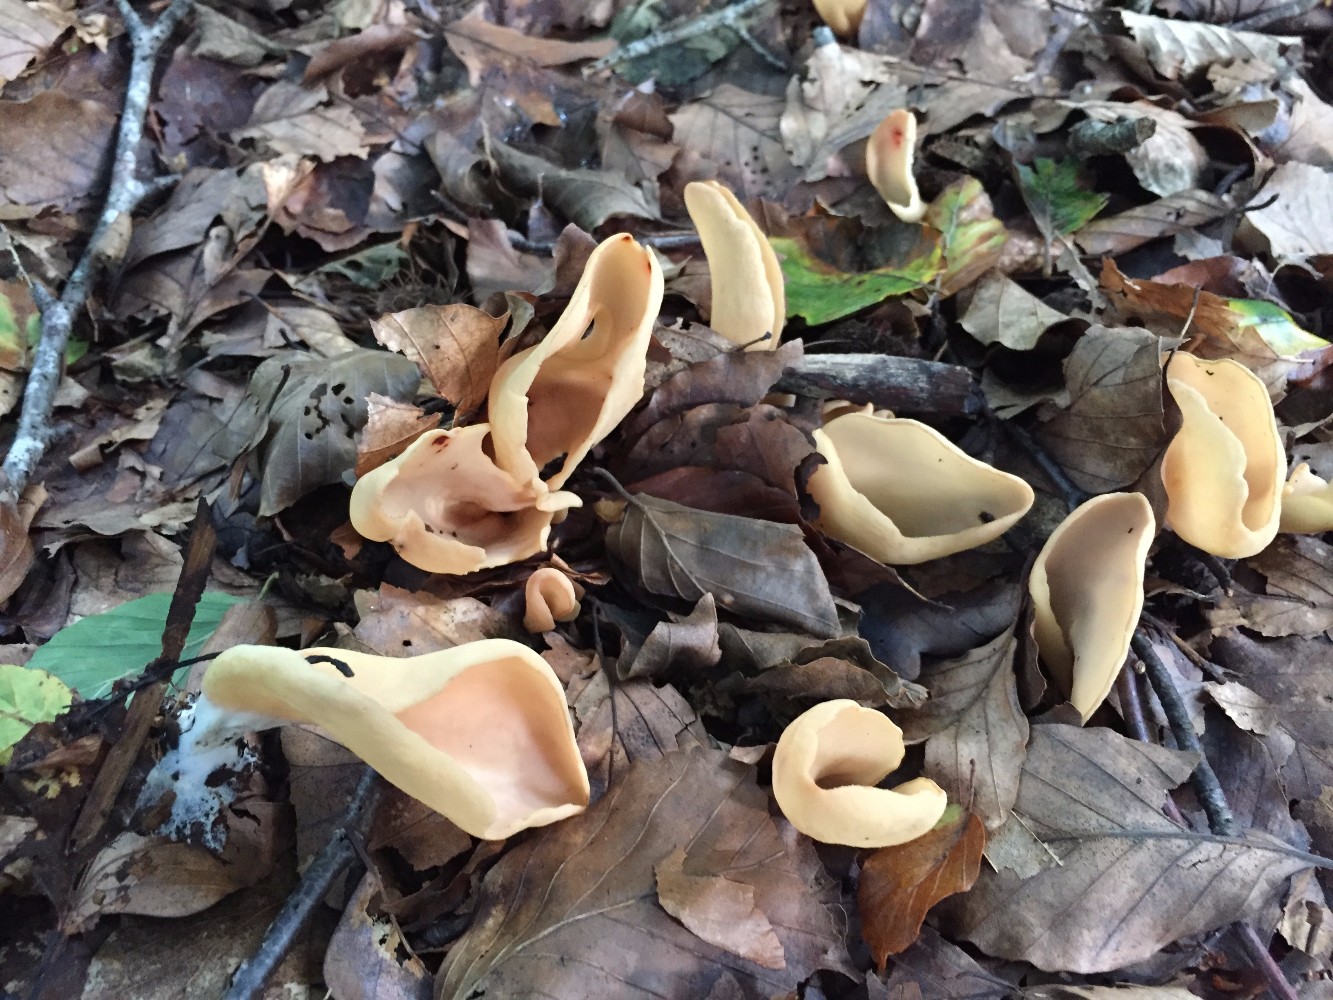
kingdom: Fungi
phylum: Ascomycota
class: Pezizomycetes
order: Pezizales
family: Otideaceae
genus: Otidea
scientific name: Otidea onotica
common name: æsel-ørebæger
